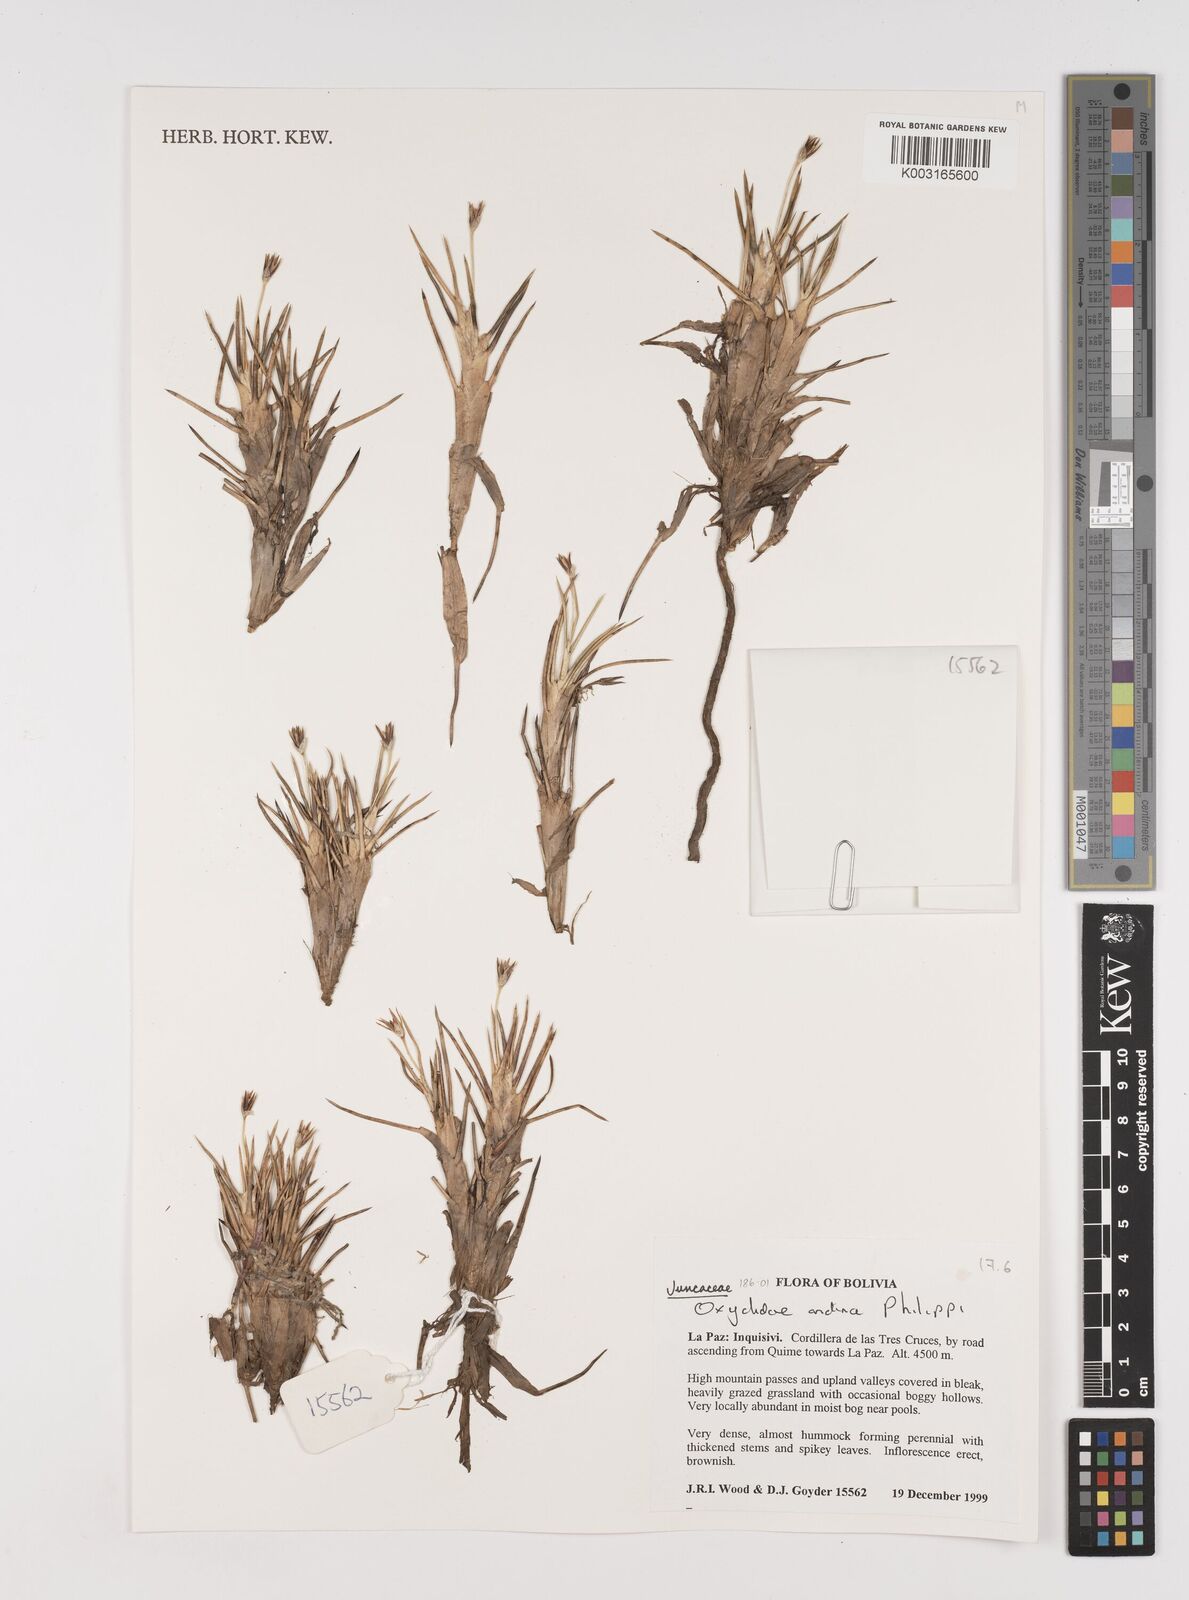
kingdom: Plantae
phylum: Tracheophyta
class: Liliopsida
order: Poales
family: Juncaceae
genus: Oxychloe
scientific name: Oxychloe andina
